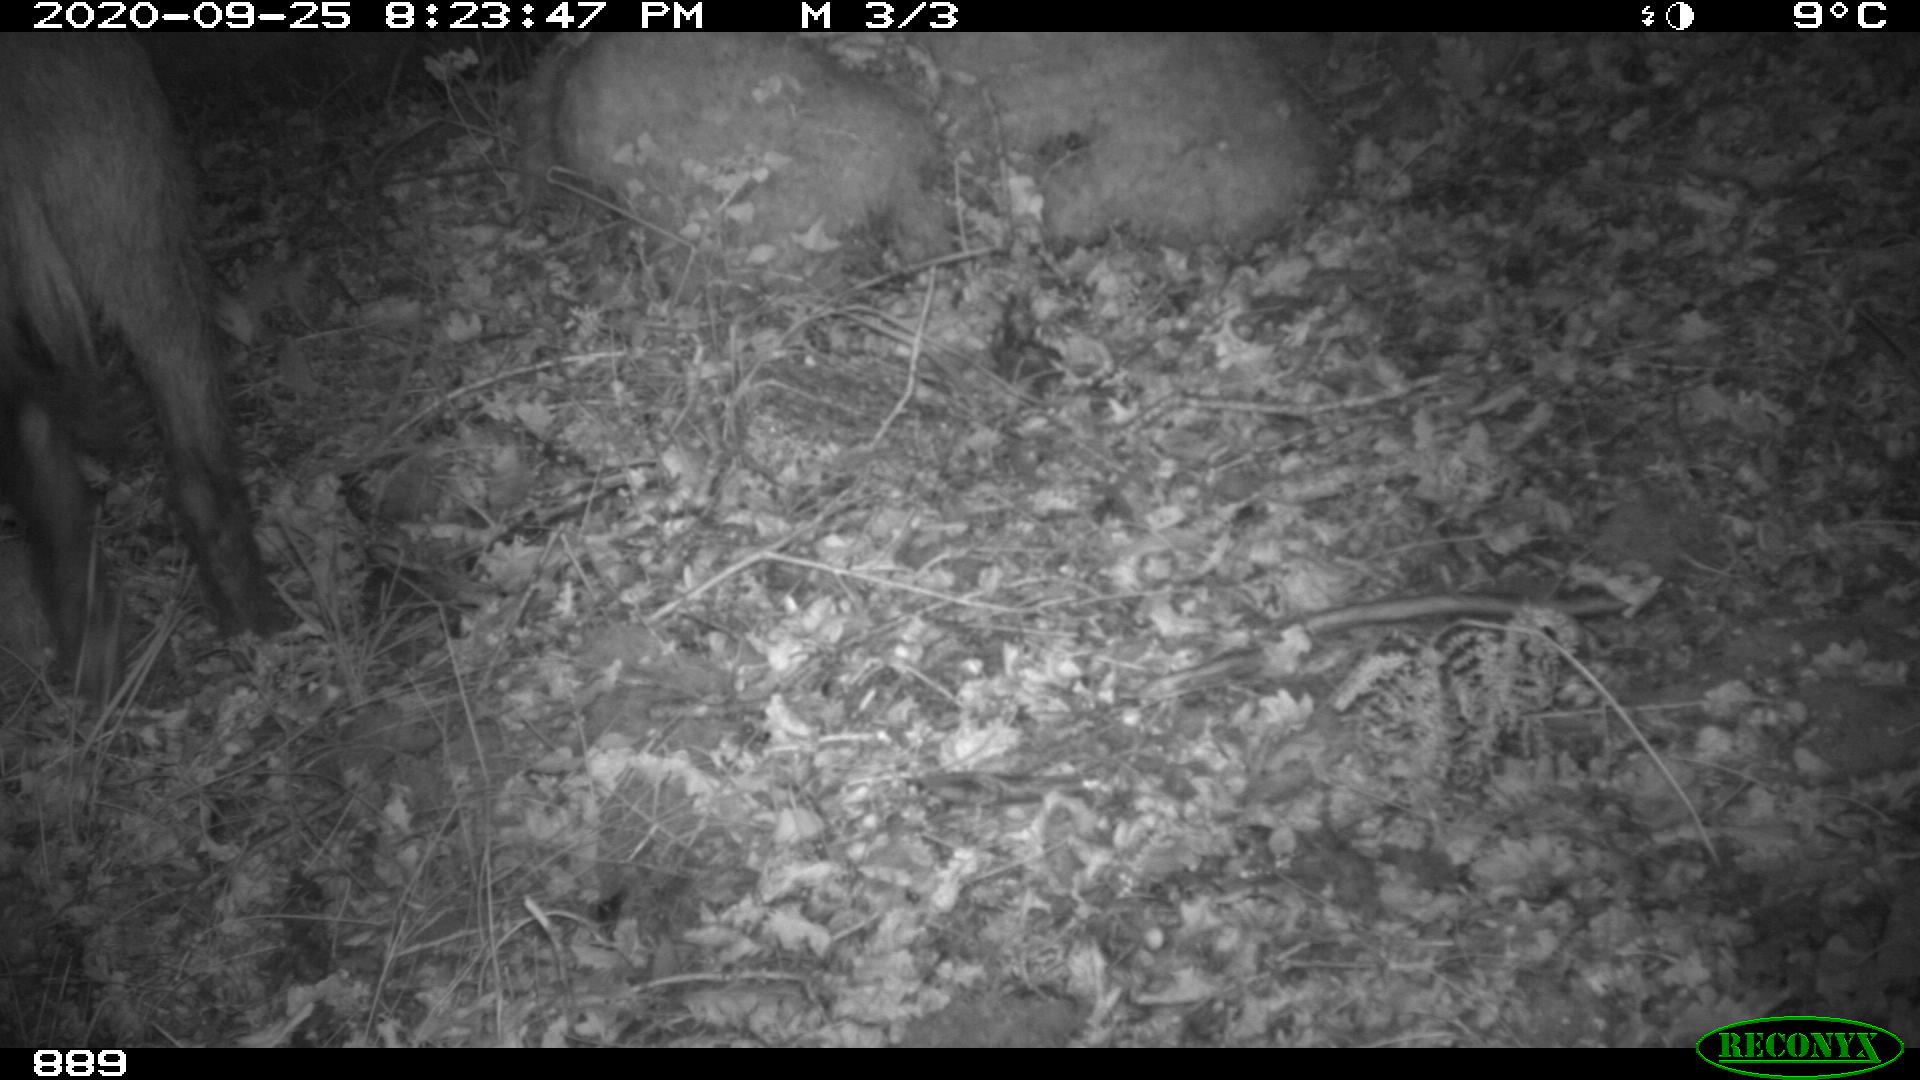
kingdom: Animalia
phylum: Chordata
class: Mammalia
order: Artiodactyla
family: Suidae
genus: Sus
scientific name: Sus scrofa
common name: Wild boar
